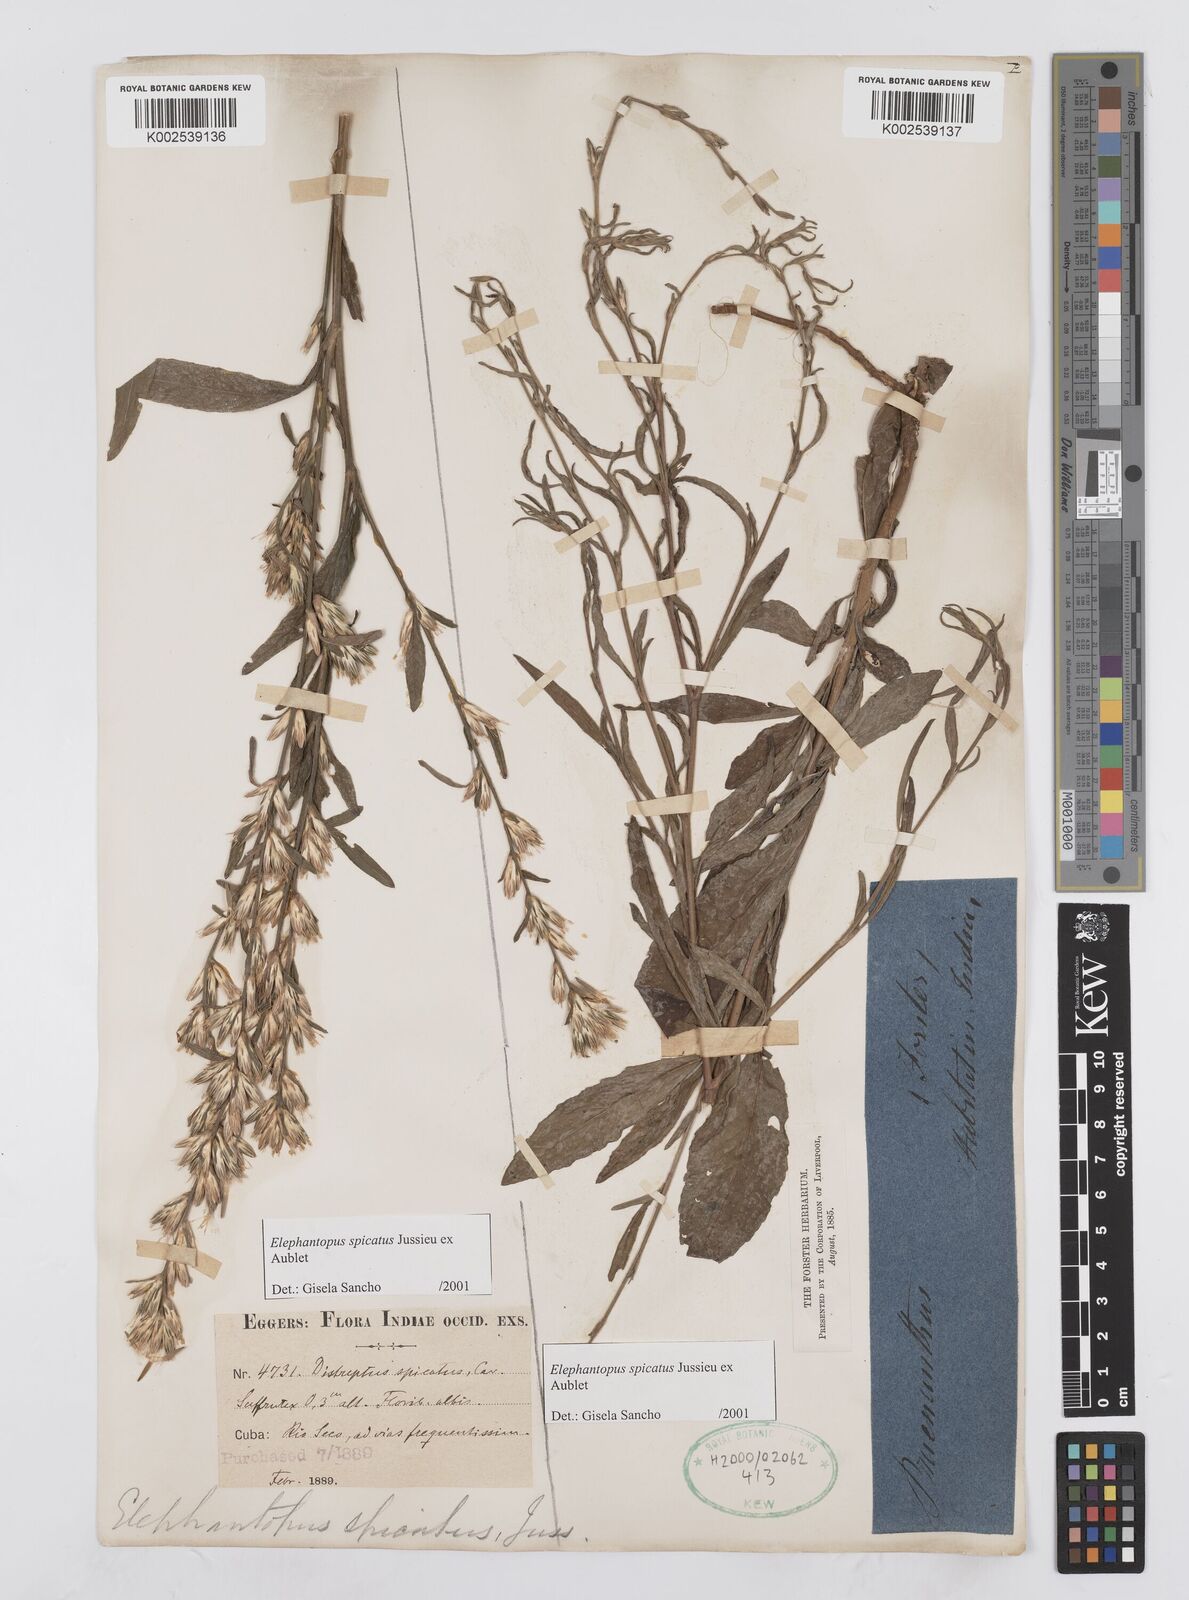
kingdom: Plantae
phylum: Tracheophyta
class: Magnoliopsida
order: Asterales
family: Asteraceae
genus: Pseudelephantopus
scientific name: Pseudelephantopus spicatus
